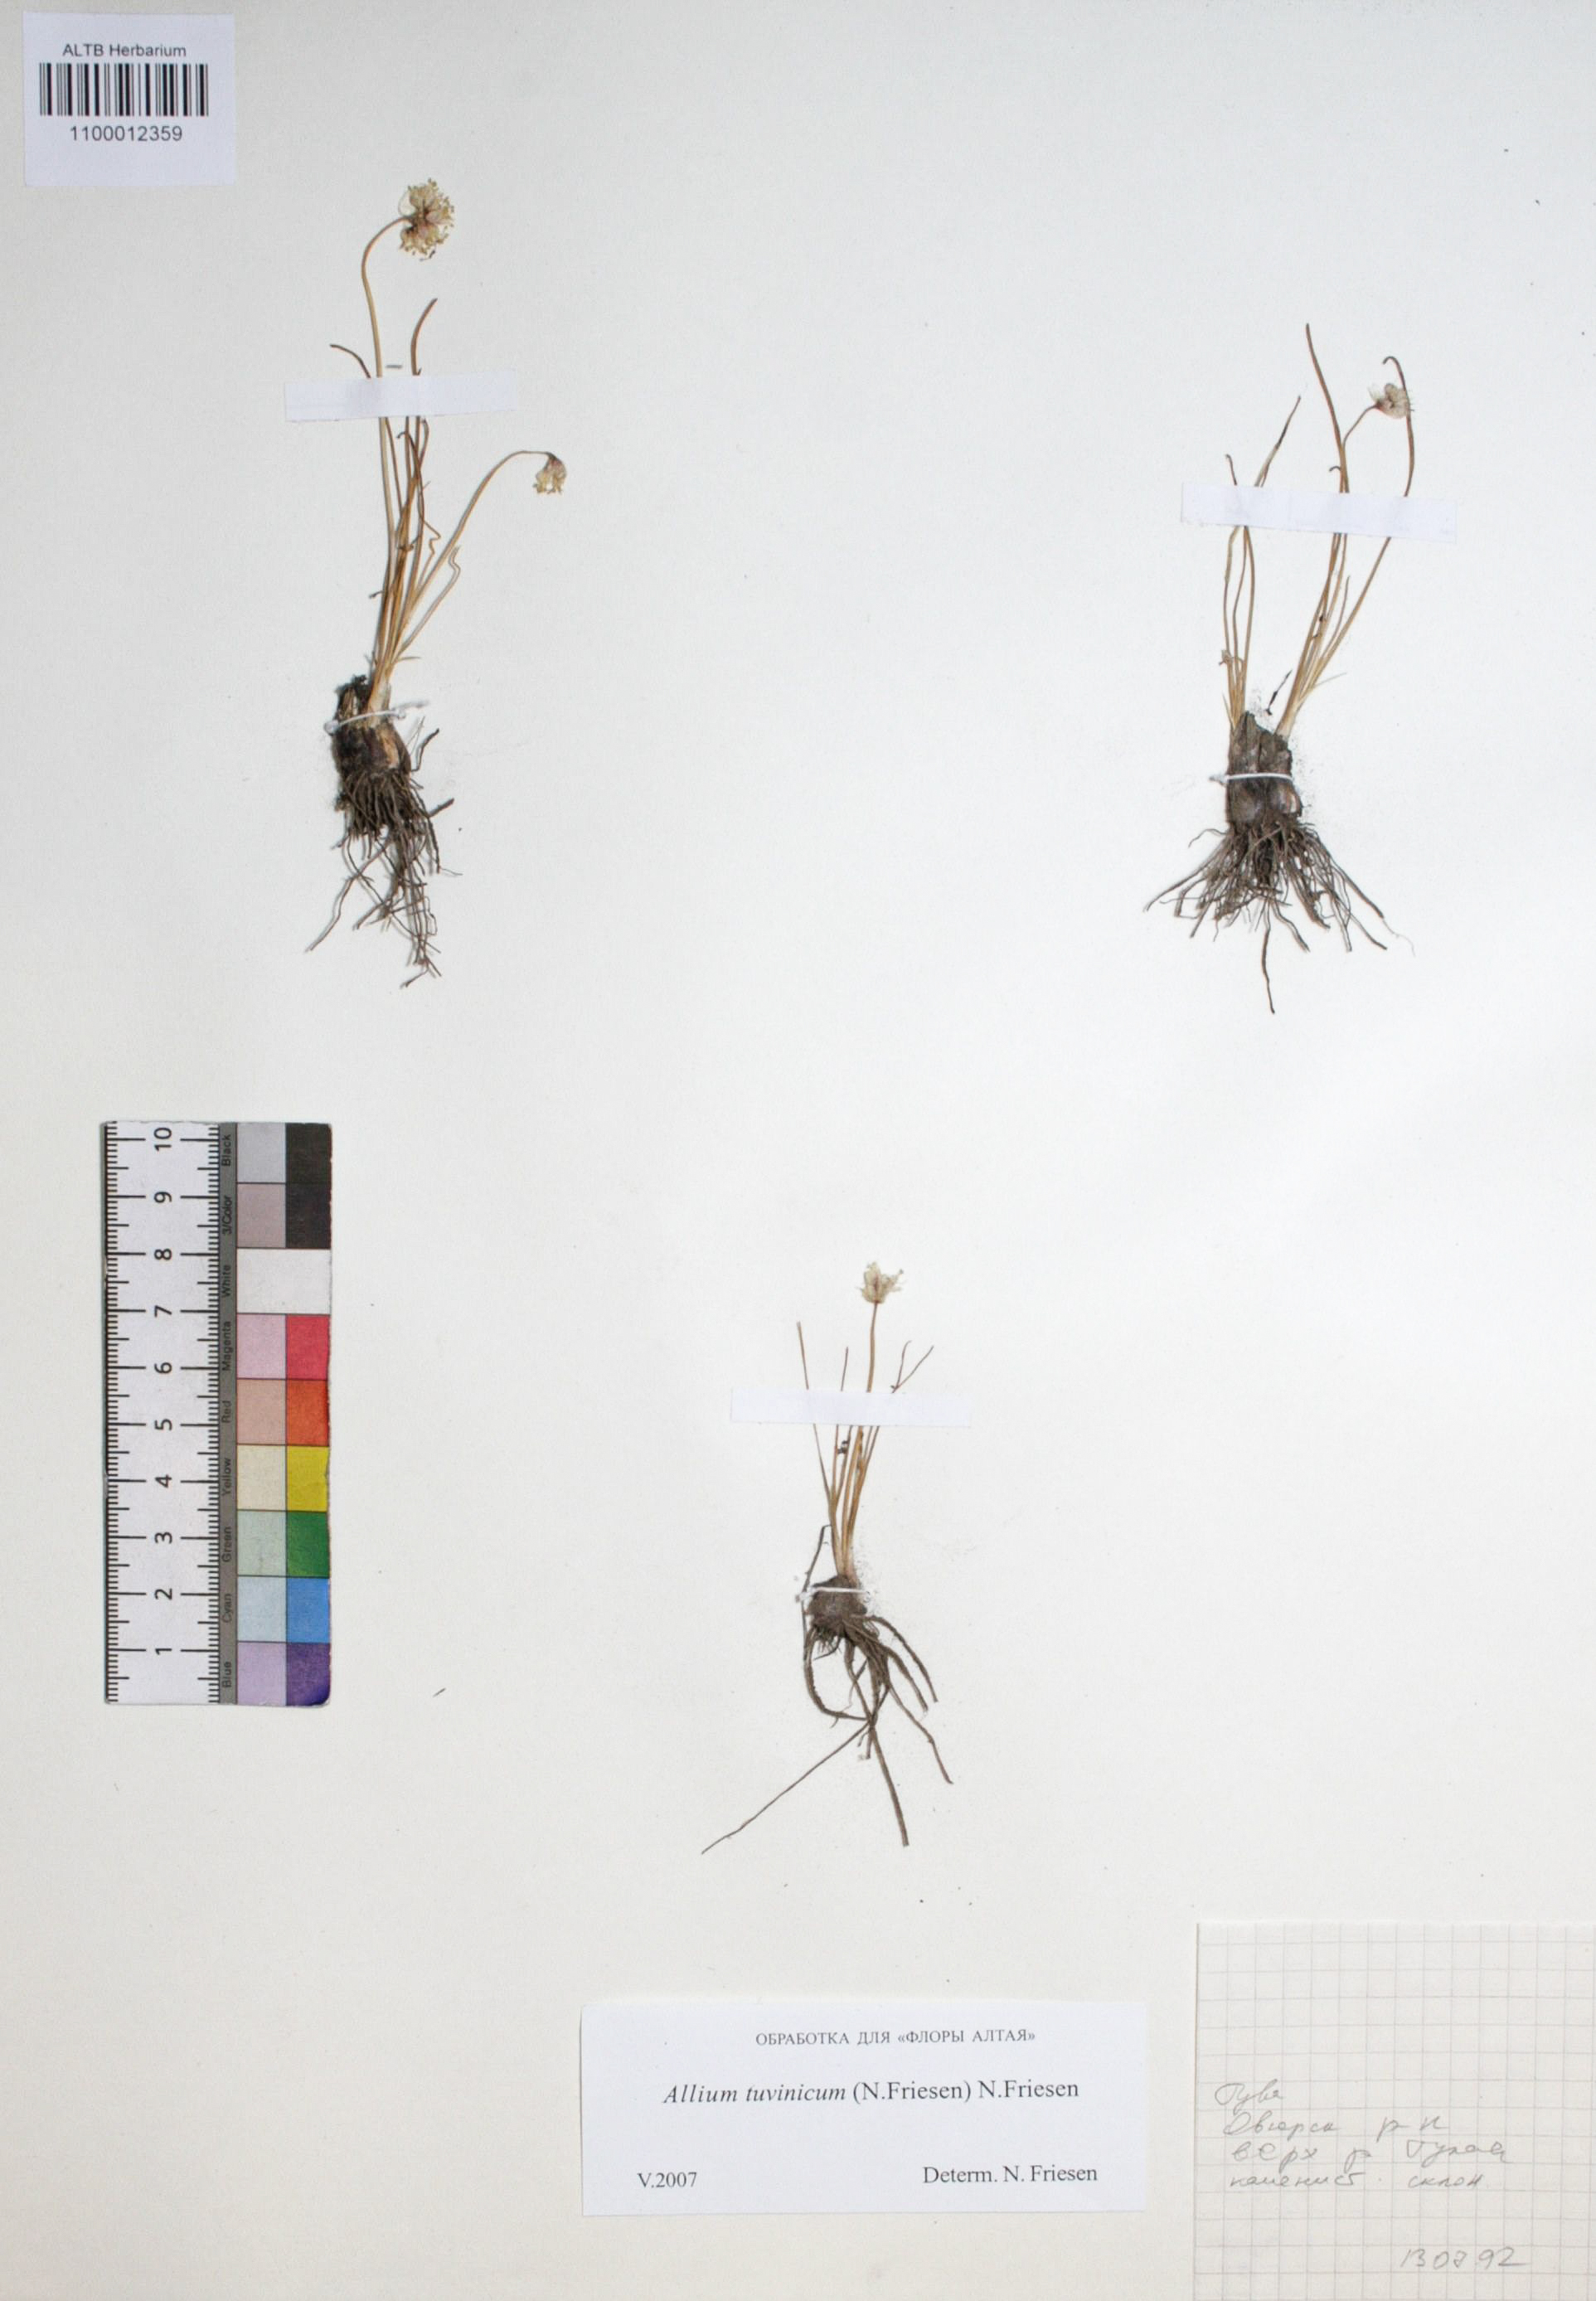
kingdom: Plantae
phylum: Tracheophyta
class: Liliopsida
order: Asparagales
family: Amaryllidaceae
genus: Allium
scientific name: Allium tuvinicum
